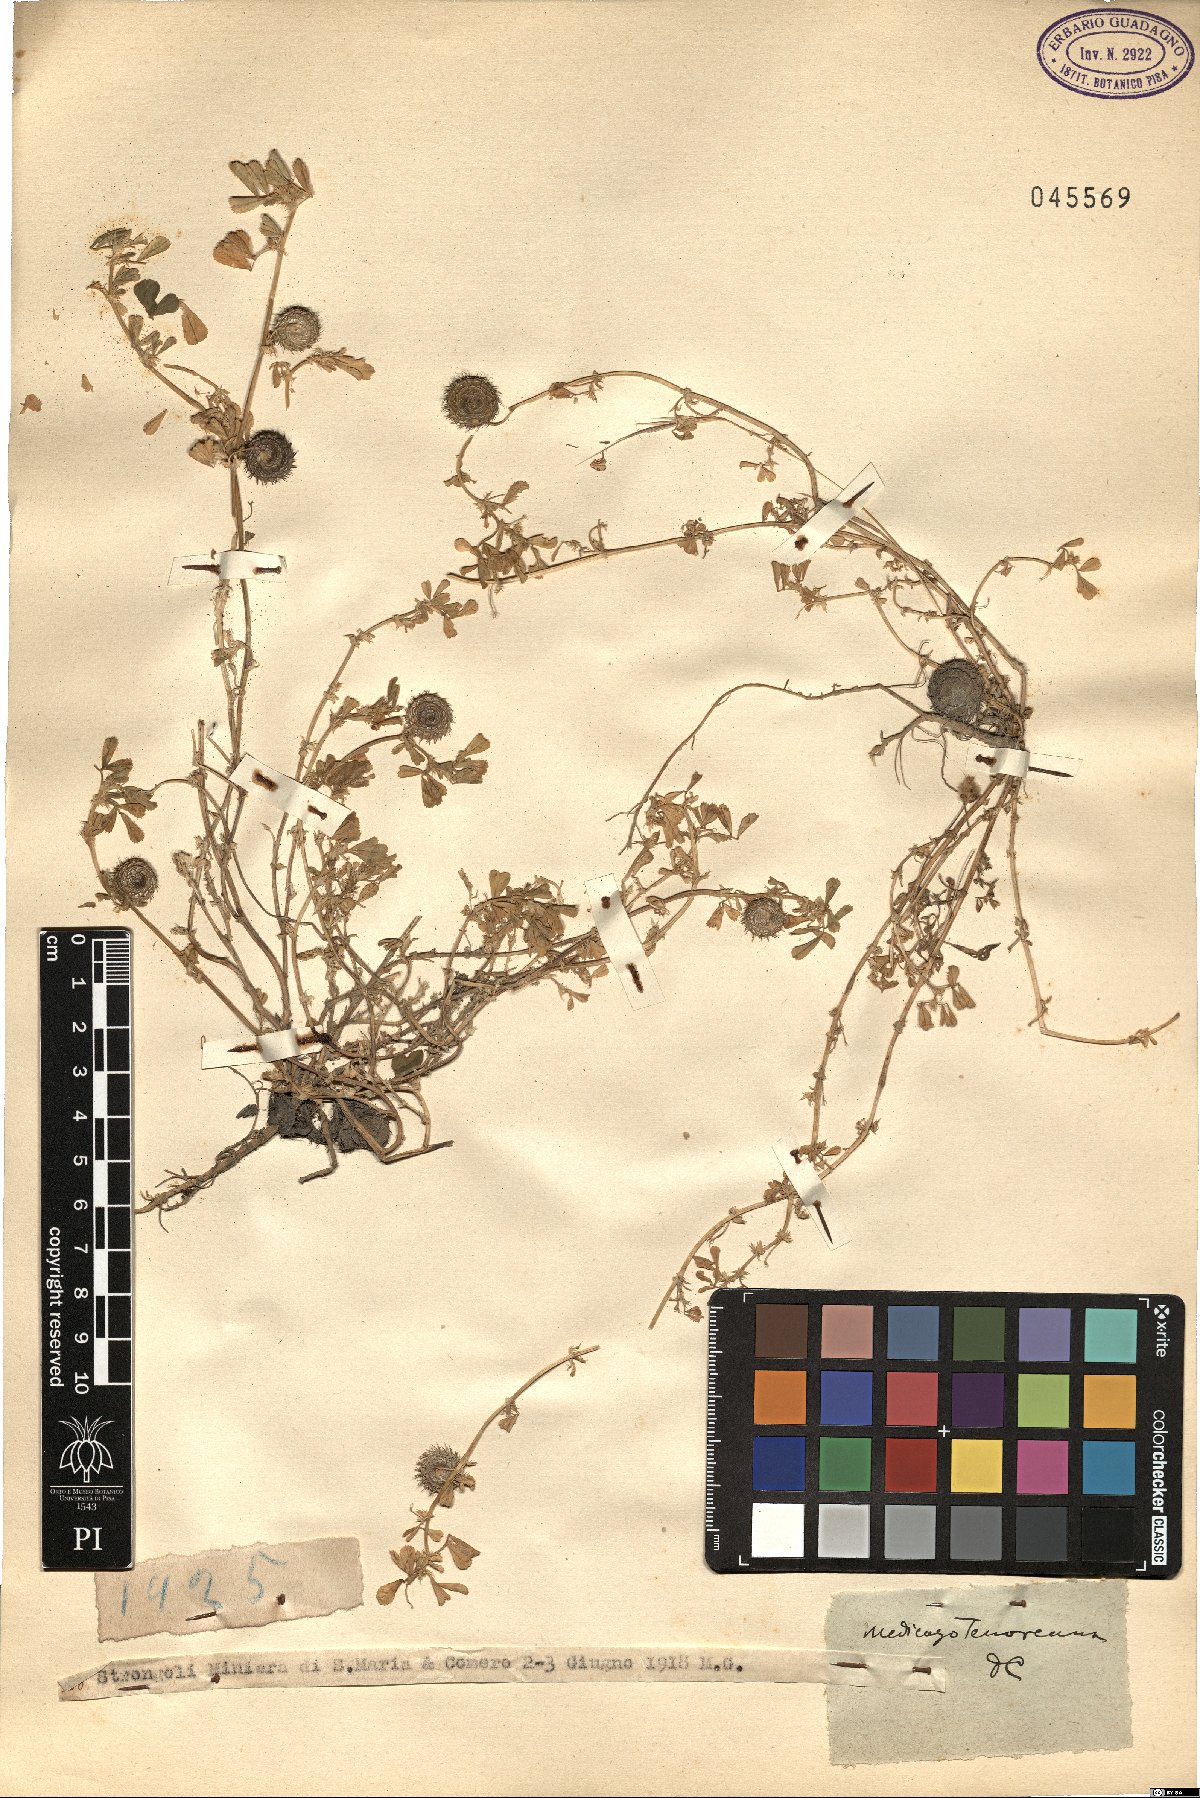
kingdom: Plantae
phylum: Tracheophyta
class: Magnoliopsida
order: Fabales
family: Fabaceae
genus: Medicago
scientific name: Medicago tenoreana
